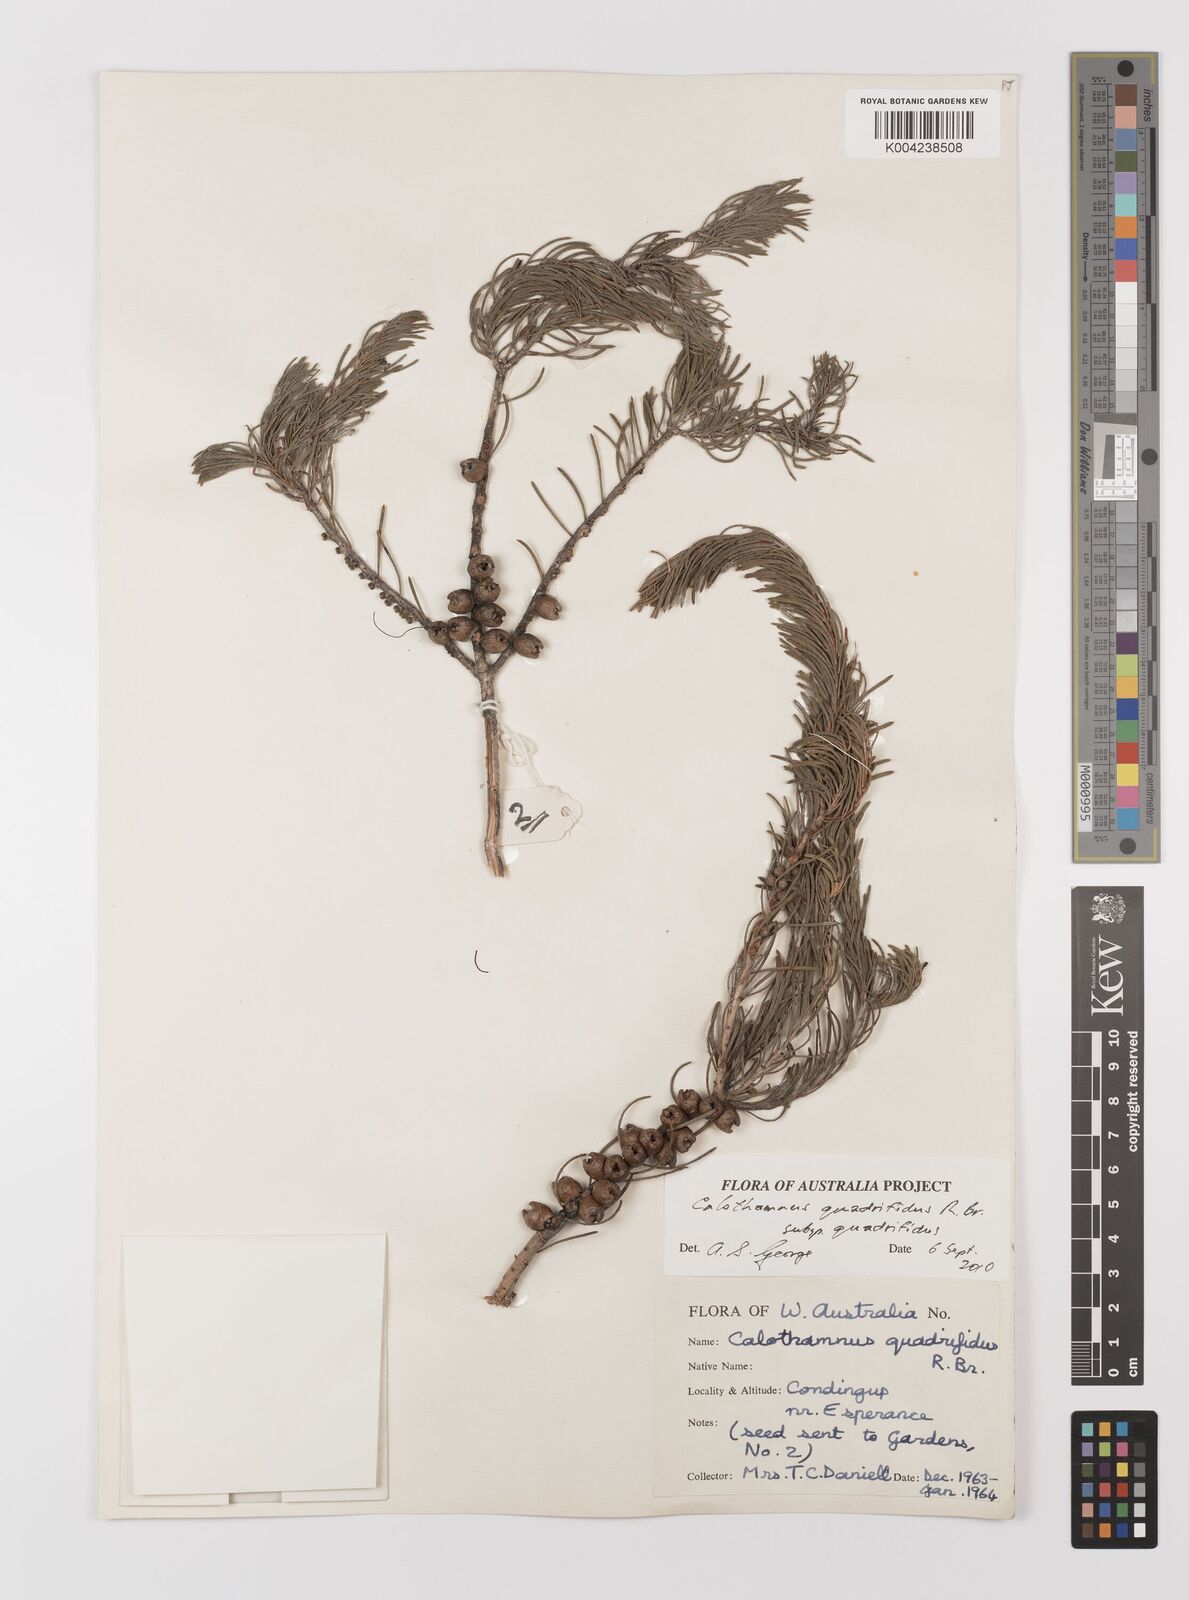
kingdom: Plantae
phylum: Tracheophyta
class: Magnoliopsida
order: Myrtales
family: Myrtaceae
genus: Melaleuca
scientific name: Melaleuca hislopii
